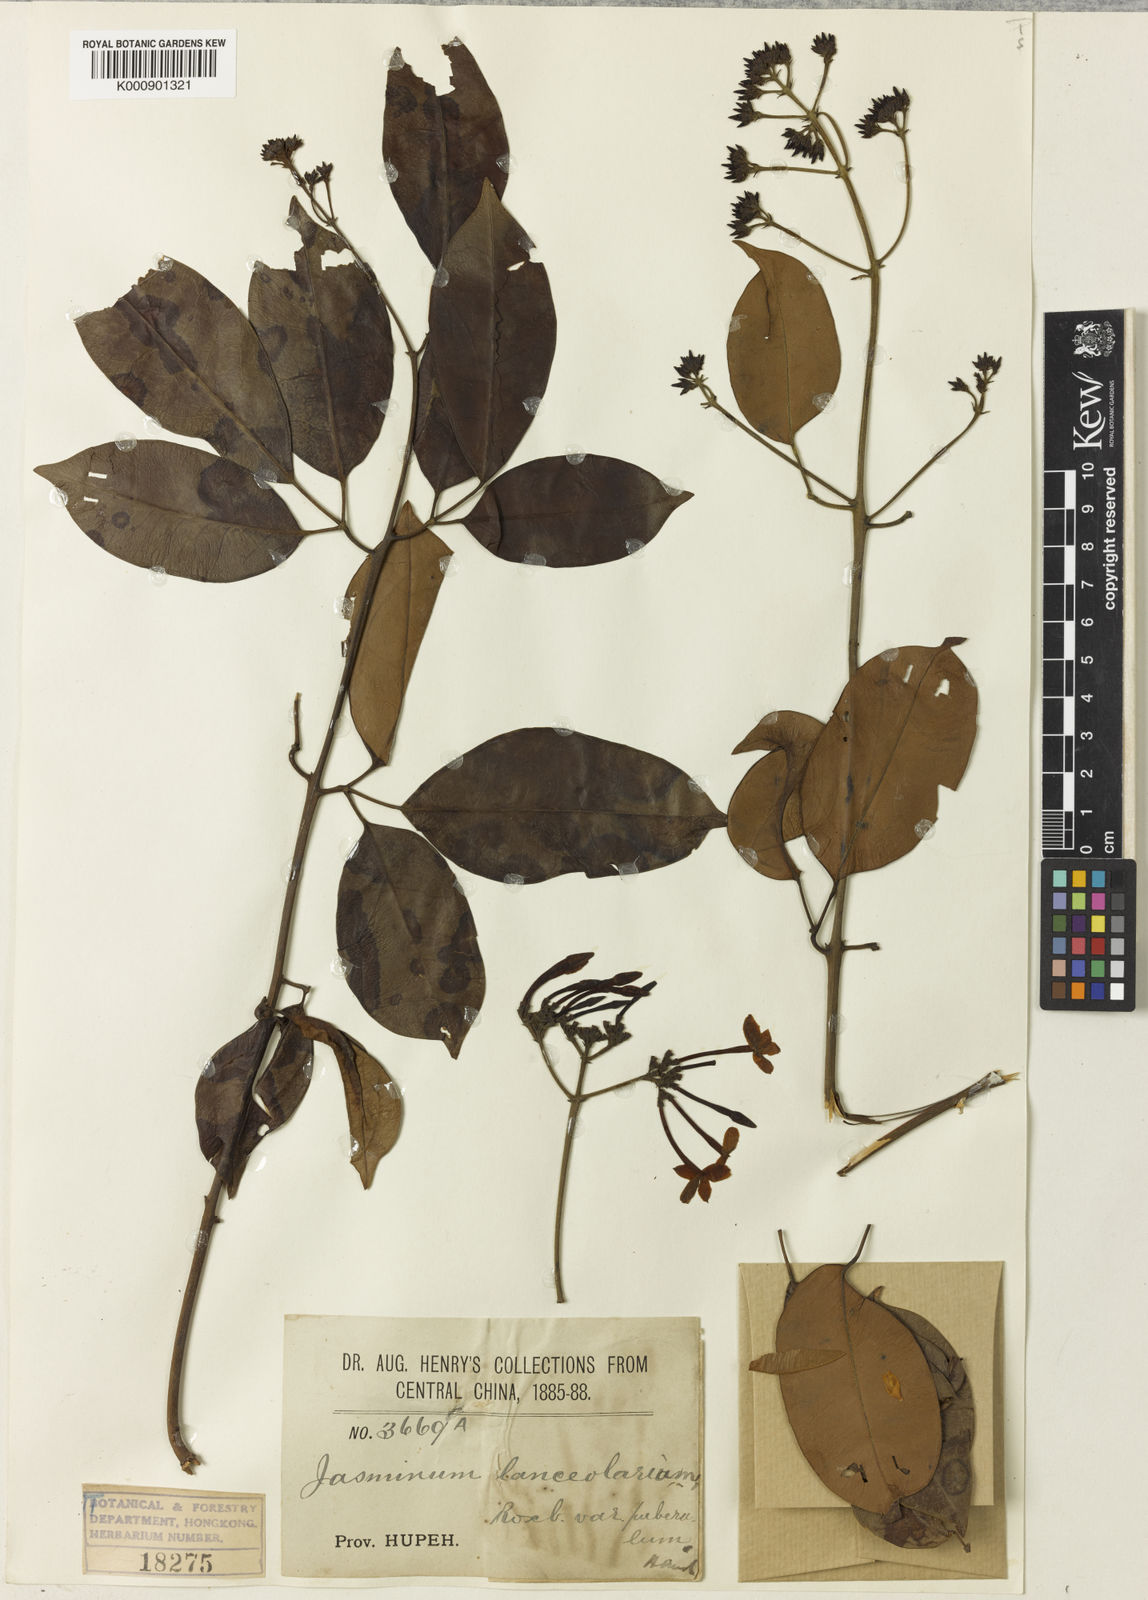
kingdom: Plantae
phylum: Tracheophyta
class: Magnoliopsida
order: Lamiales
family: Oleaceae
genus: Jasminum
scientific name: Jasminum lanceolaria
